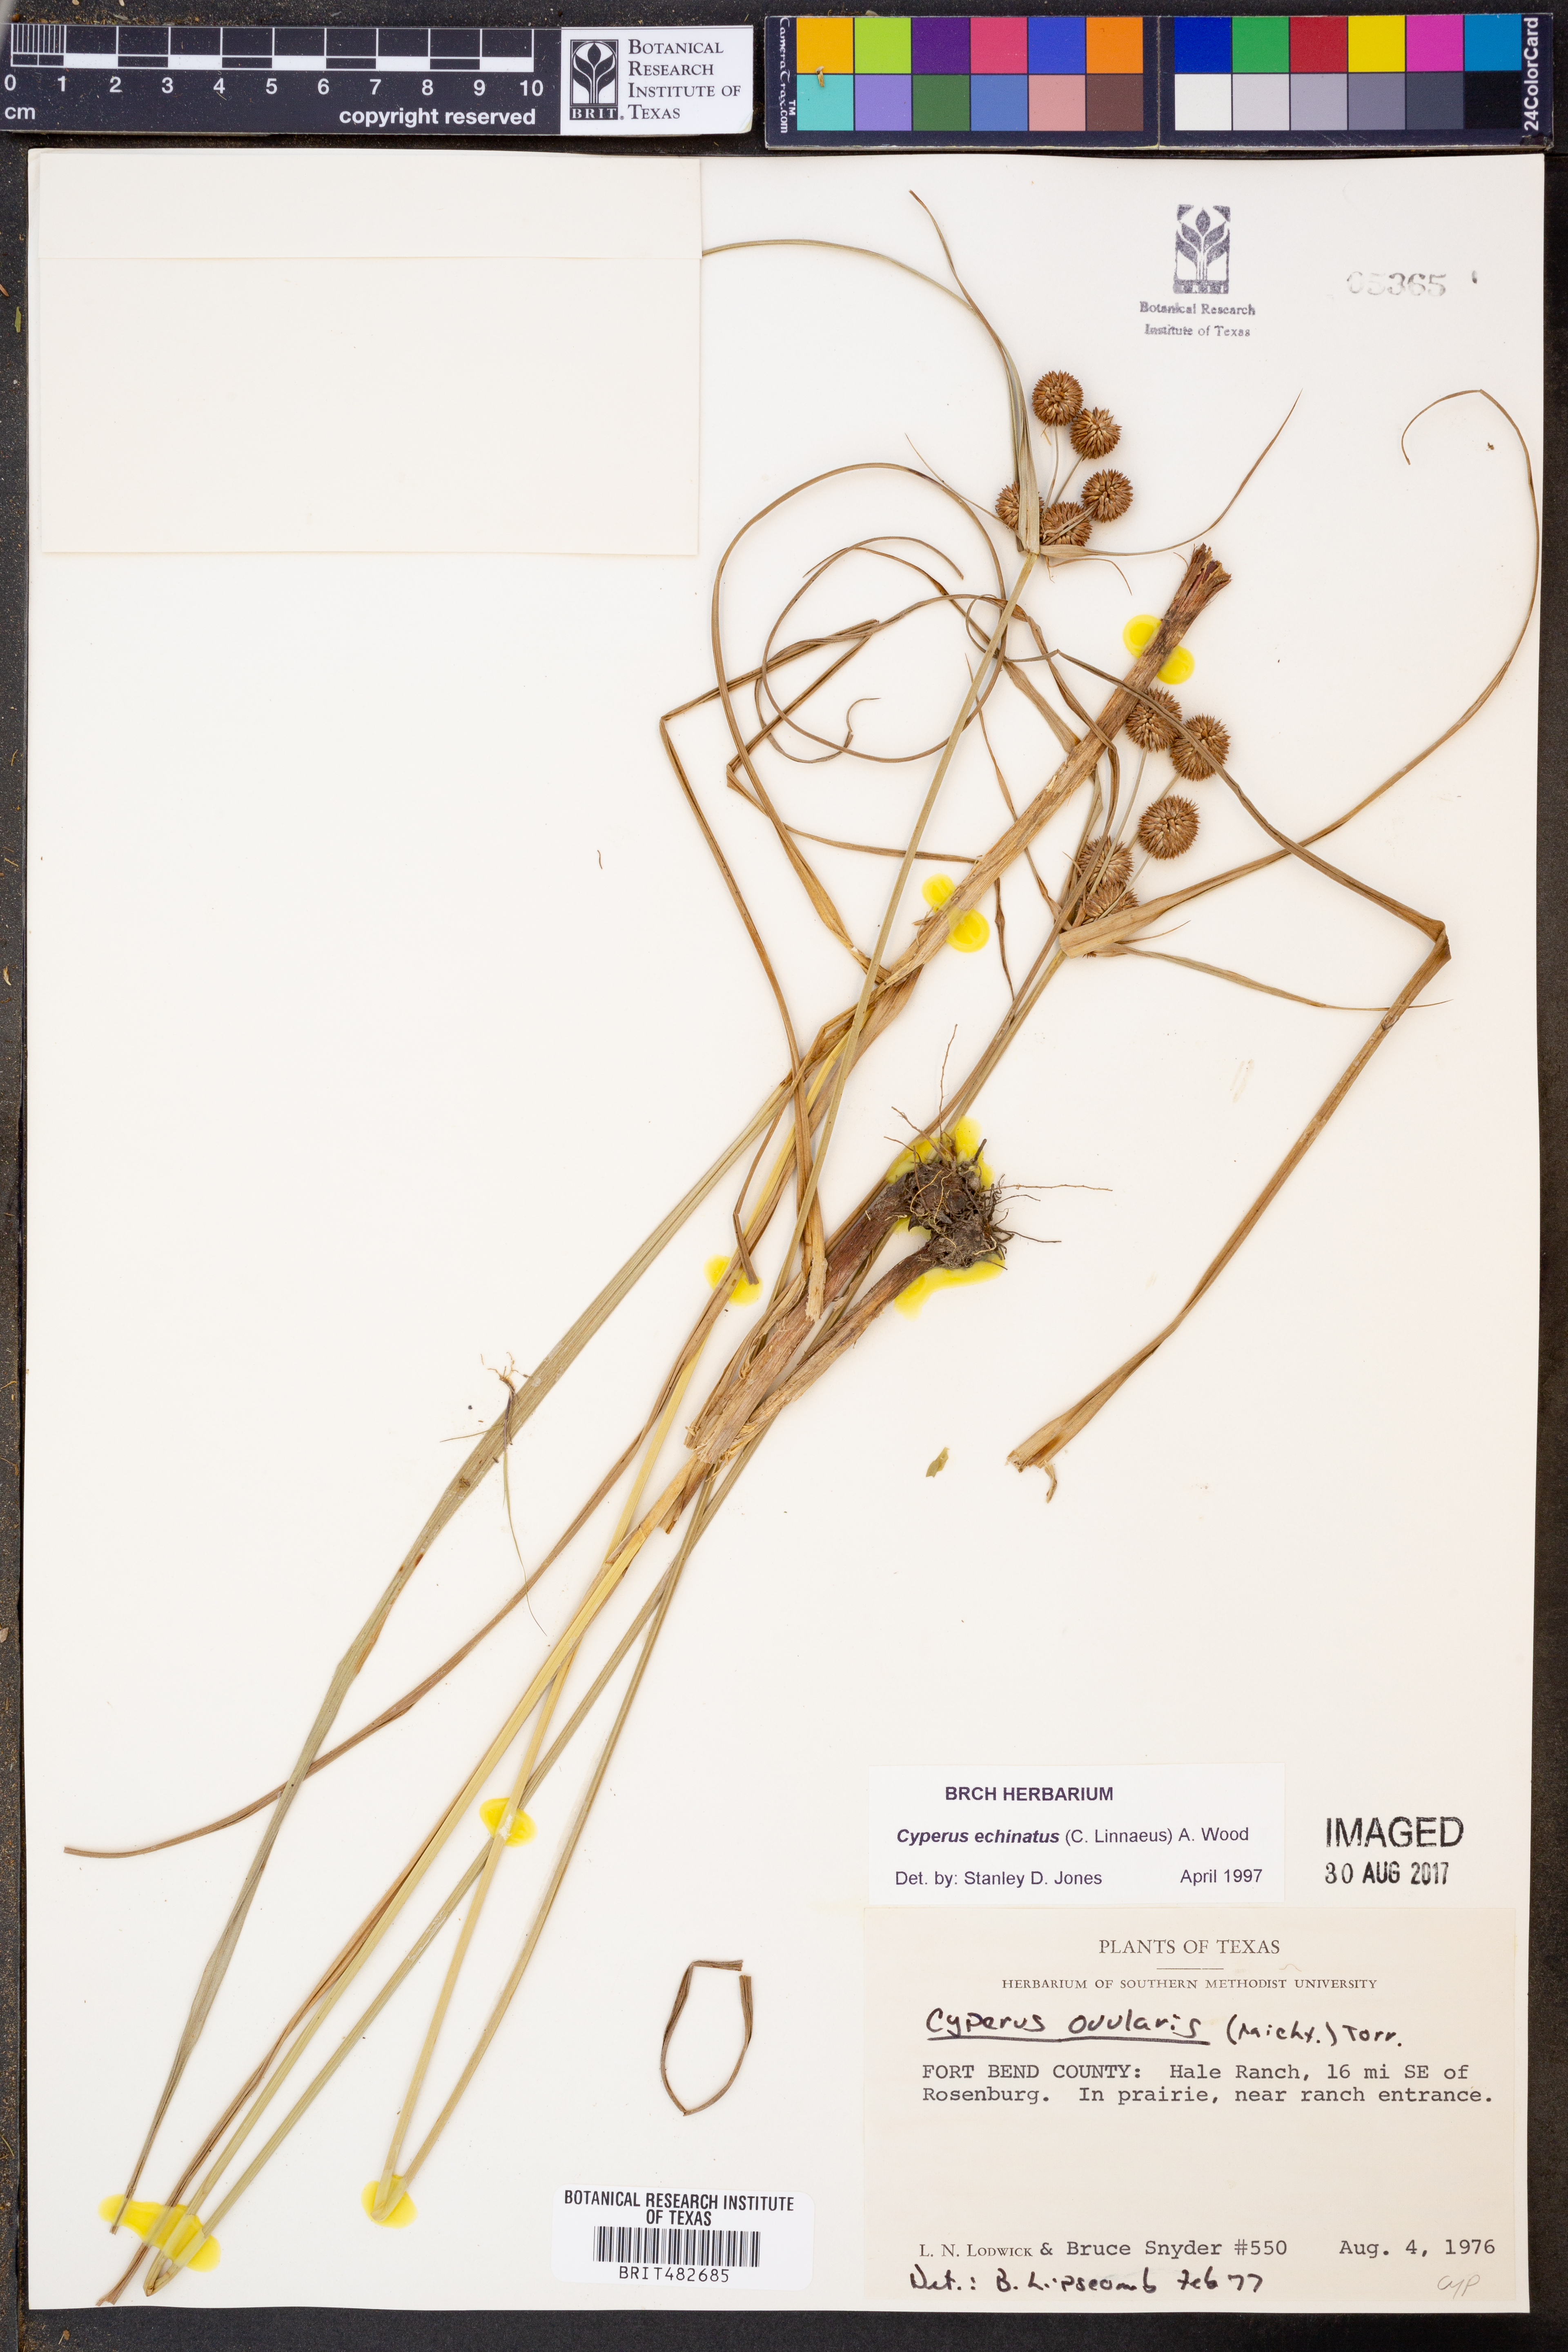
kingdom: Plantae
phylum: Tracheophyta
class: Liliopsida
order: Poales
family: Cyperaceae
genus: Cyperus
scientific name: Cyperus articulatus
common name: Jointed flatsedge
